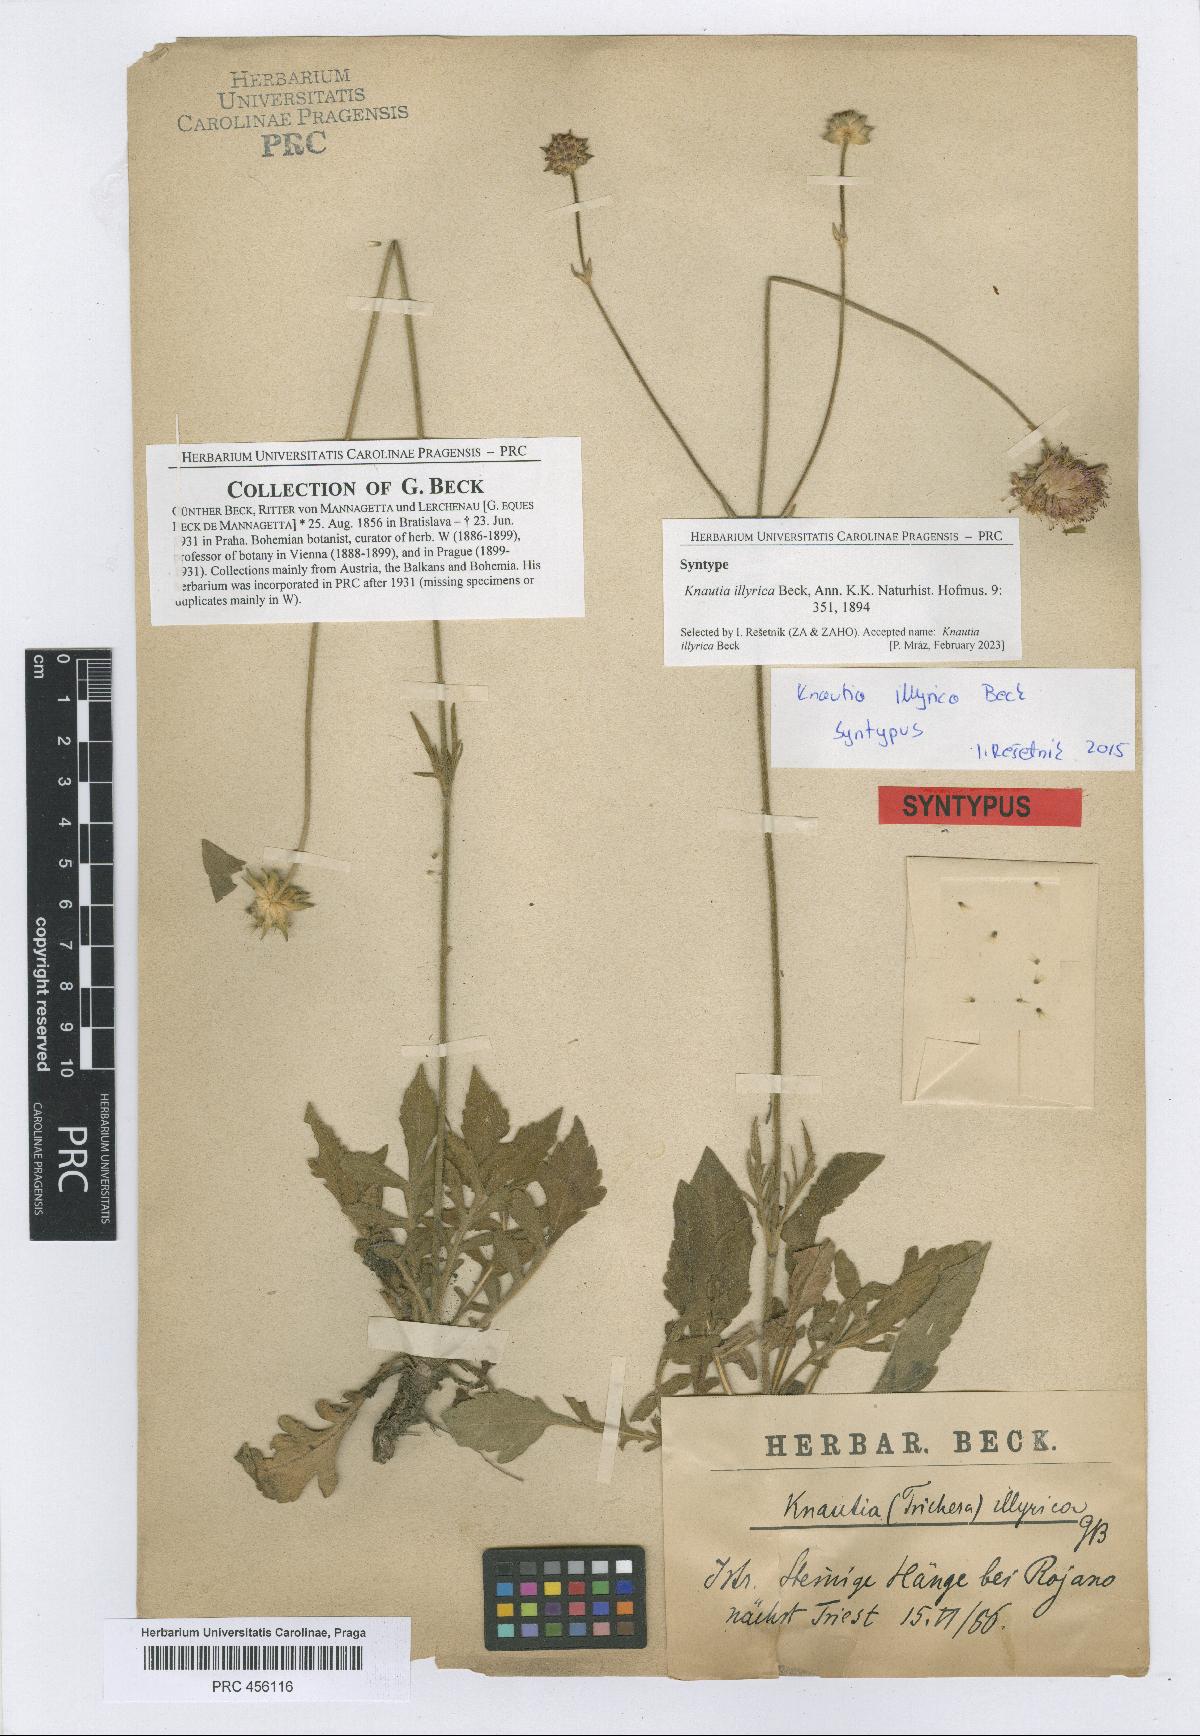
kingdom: Plantae
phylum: Tracheophyta
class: Magnoliopsida
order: Dipsacales
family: Caprifoliaceae
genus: Knautia
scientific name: Knautia illyrica
